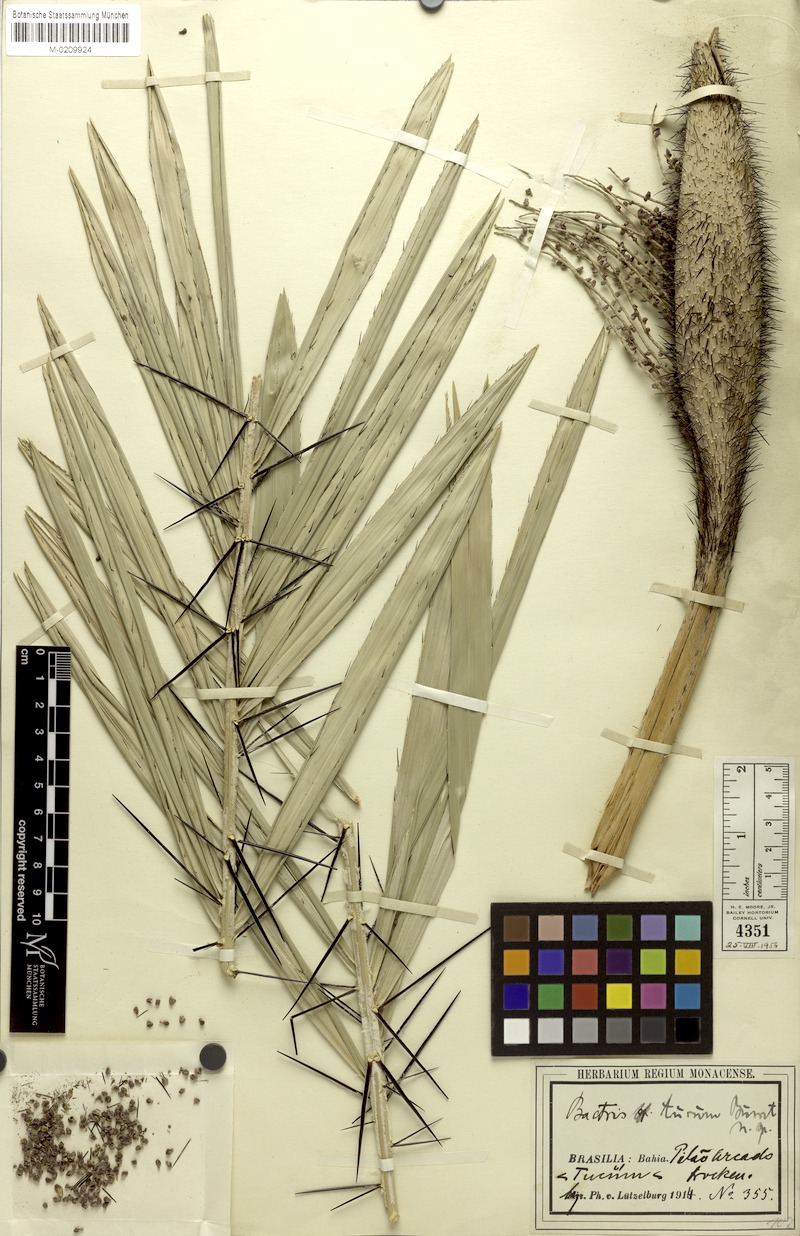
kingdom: Plantae
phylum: Tracheophyta
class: Liliopsida
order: Arecales
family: Arecaceae
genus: Bactris
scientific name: Bactris glaucescens
